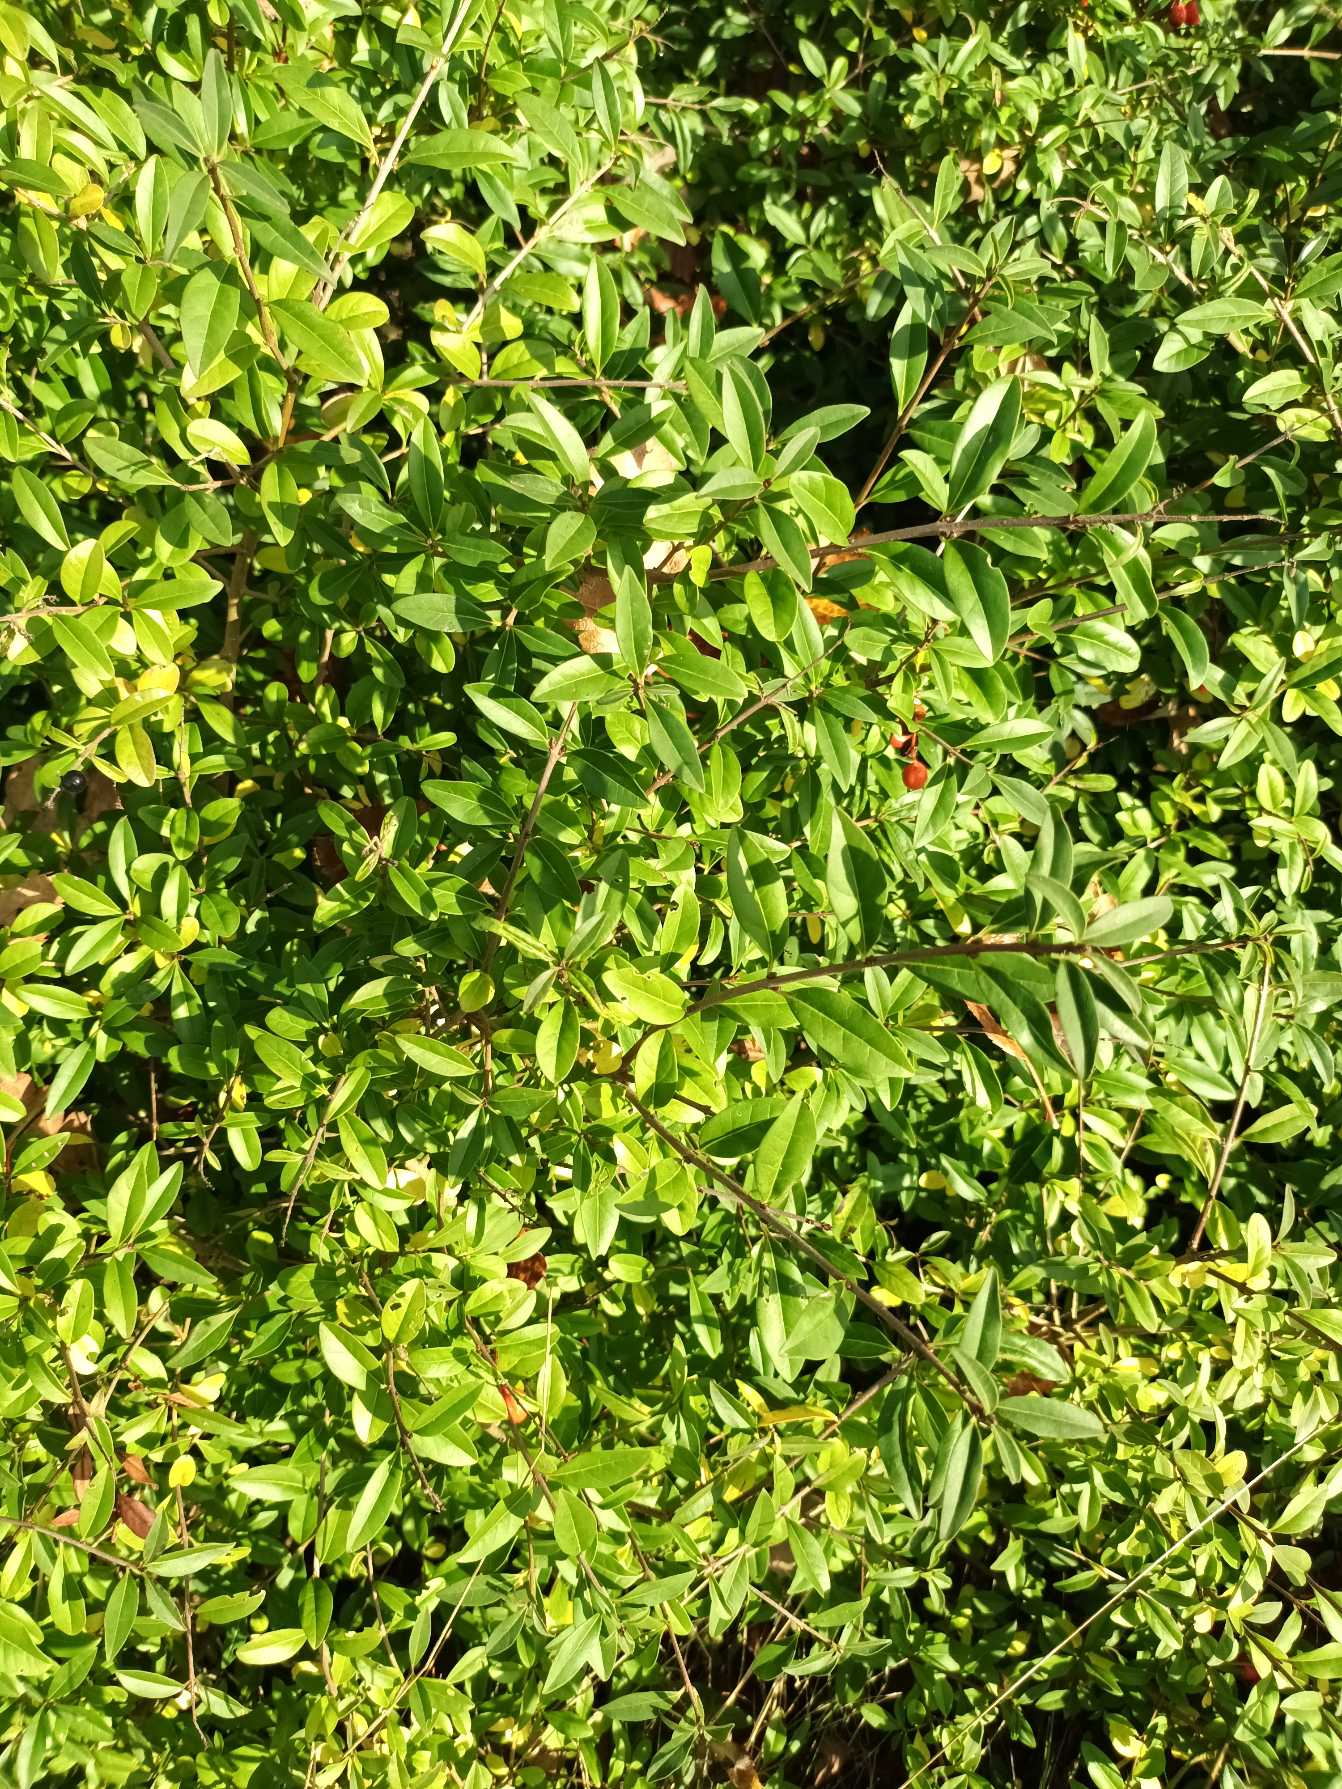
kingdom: Plantae
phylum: Tracheophyta
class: Magnoliopsida
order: Lamiales
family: Oleaceae
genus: Ligustrum
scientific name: Ligustrum vulgare
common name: Liguster
